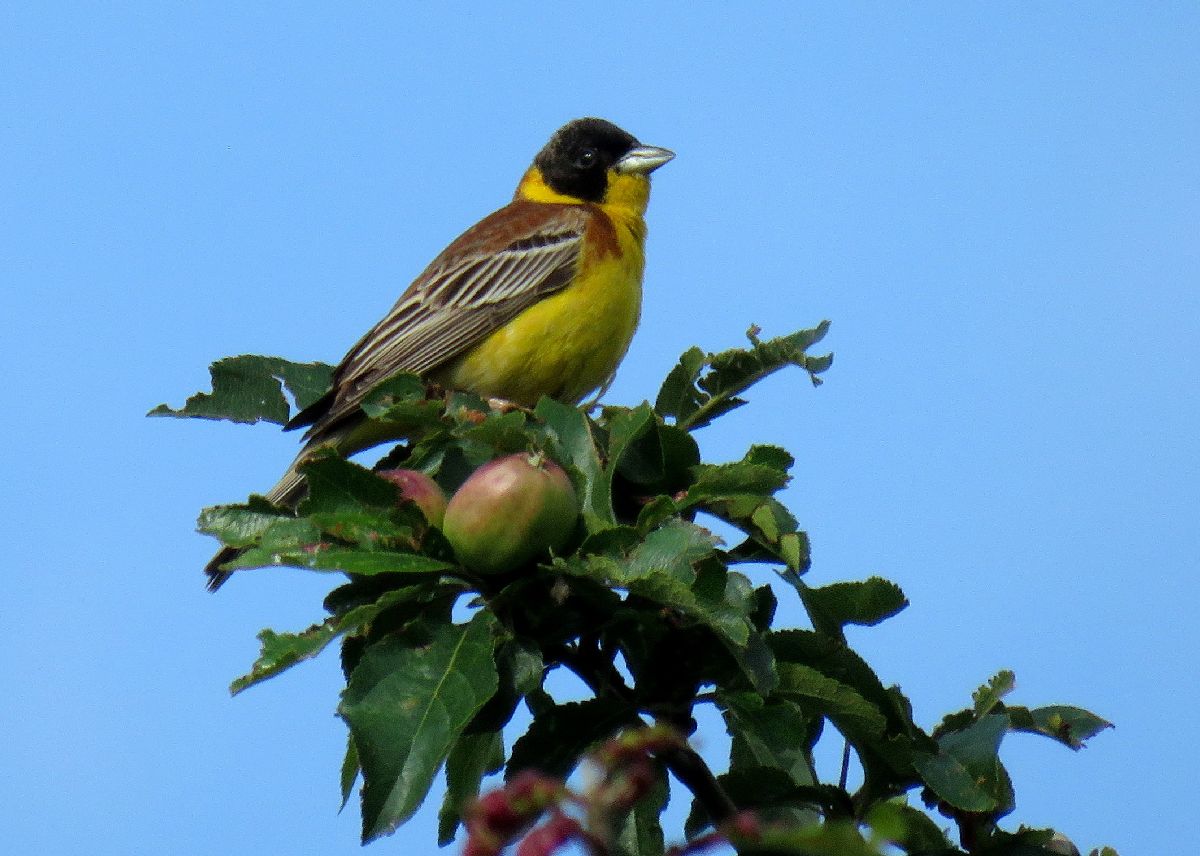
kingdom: Animalia
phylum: Chordata
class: Aves
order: Passeriformes
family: Emberizidae
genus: Emberiza
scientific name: Emberiza melanocephala
